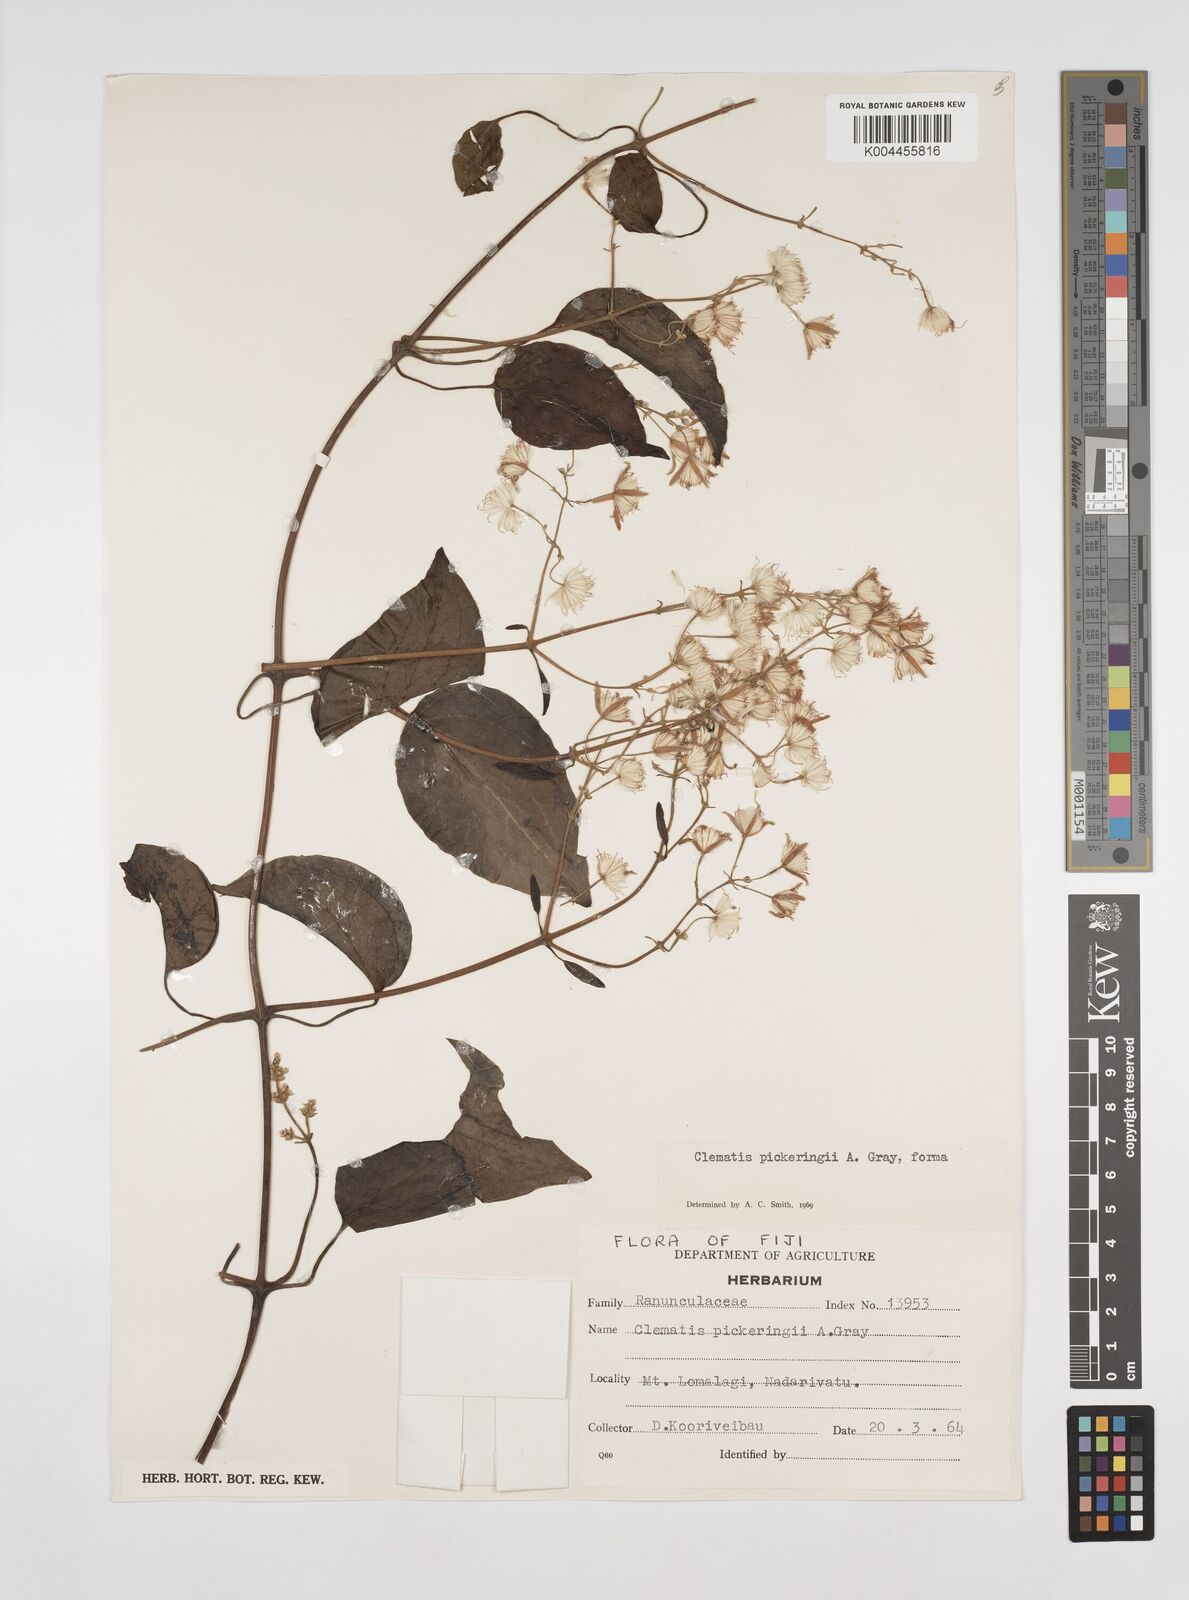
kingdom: Plantae
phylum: Tracheophyta
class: Magnoliopsida
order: Ranunculales
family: Ranunculaceae
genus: Clematis
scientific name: Clematis pickeringii
